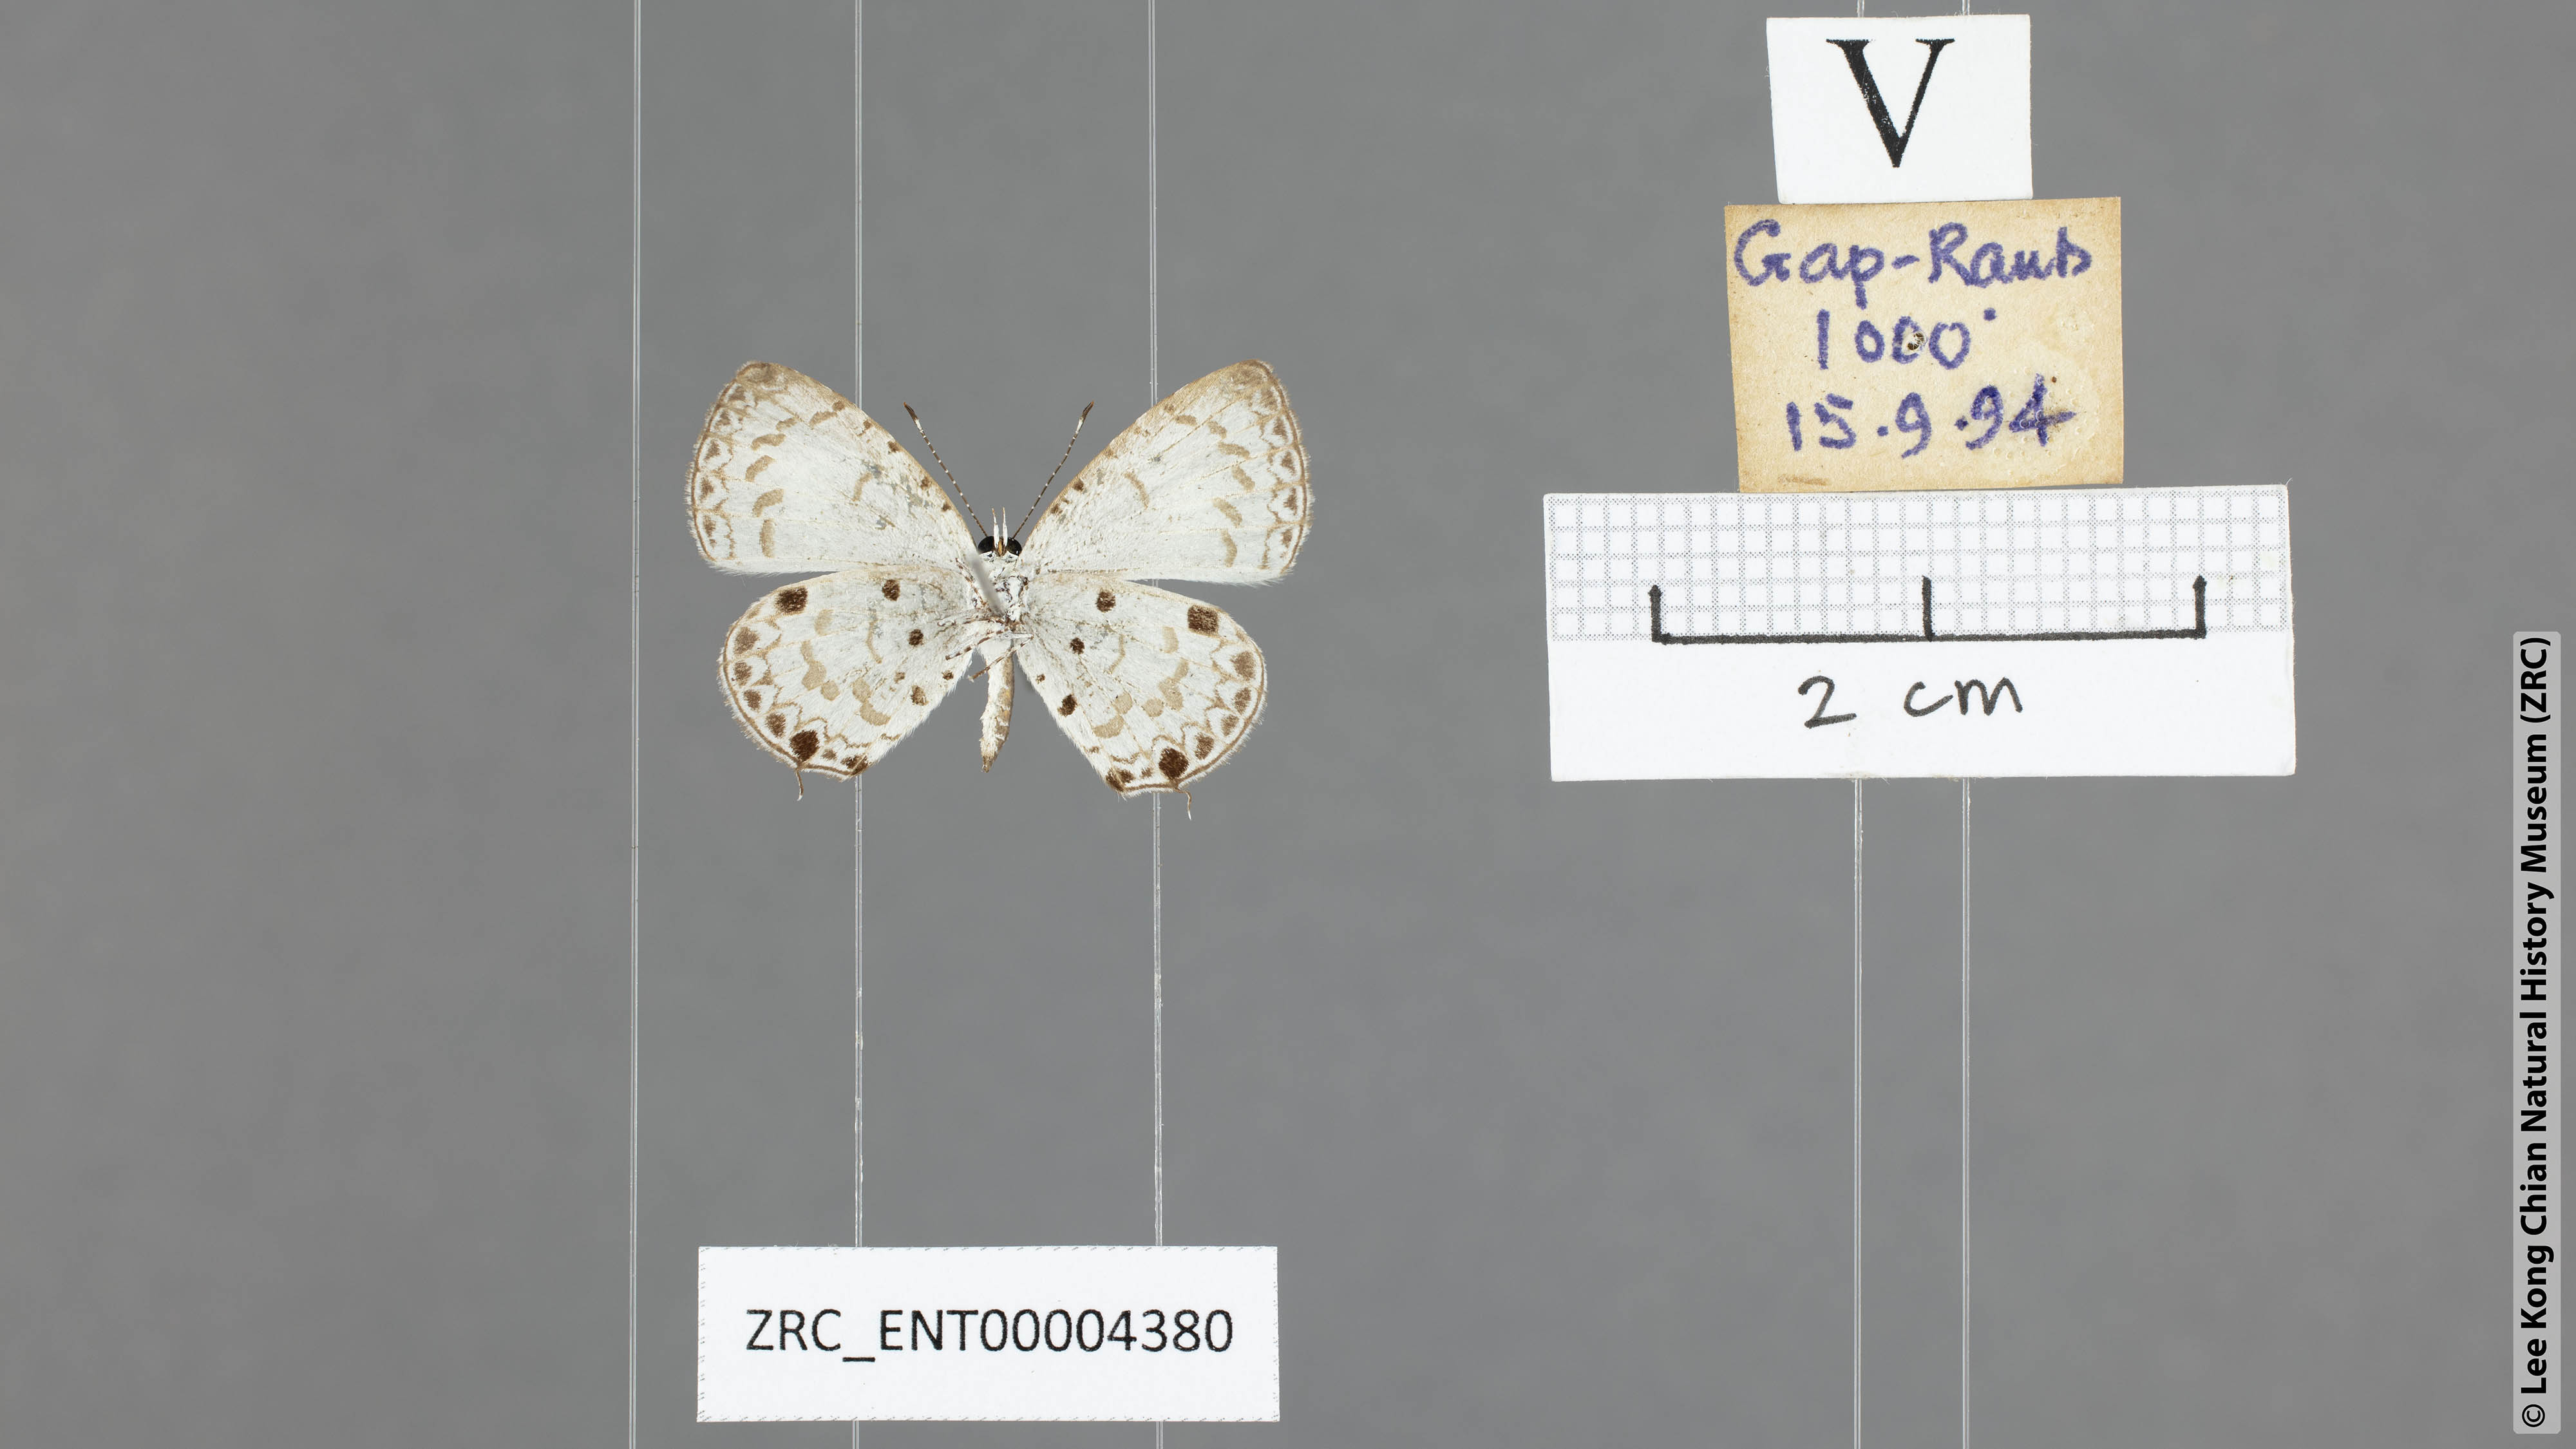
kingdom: Animalia
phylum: Arthropoda
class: Insecta
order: Lepidoptera
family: Lycaenidae
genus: Megisba
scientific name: Megisba malaya
